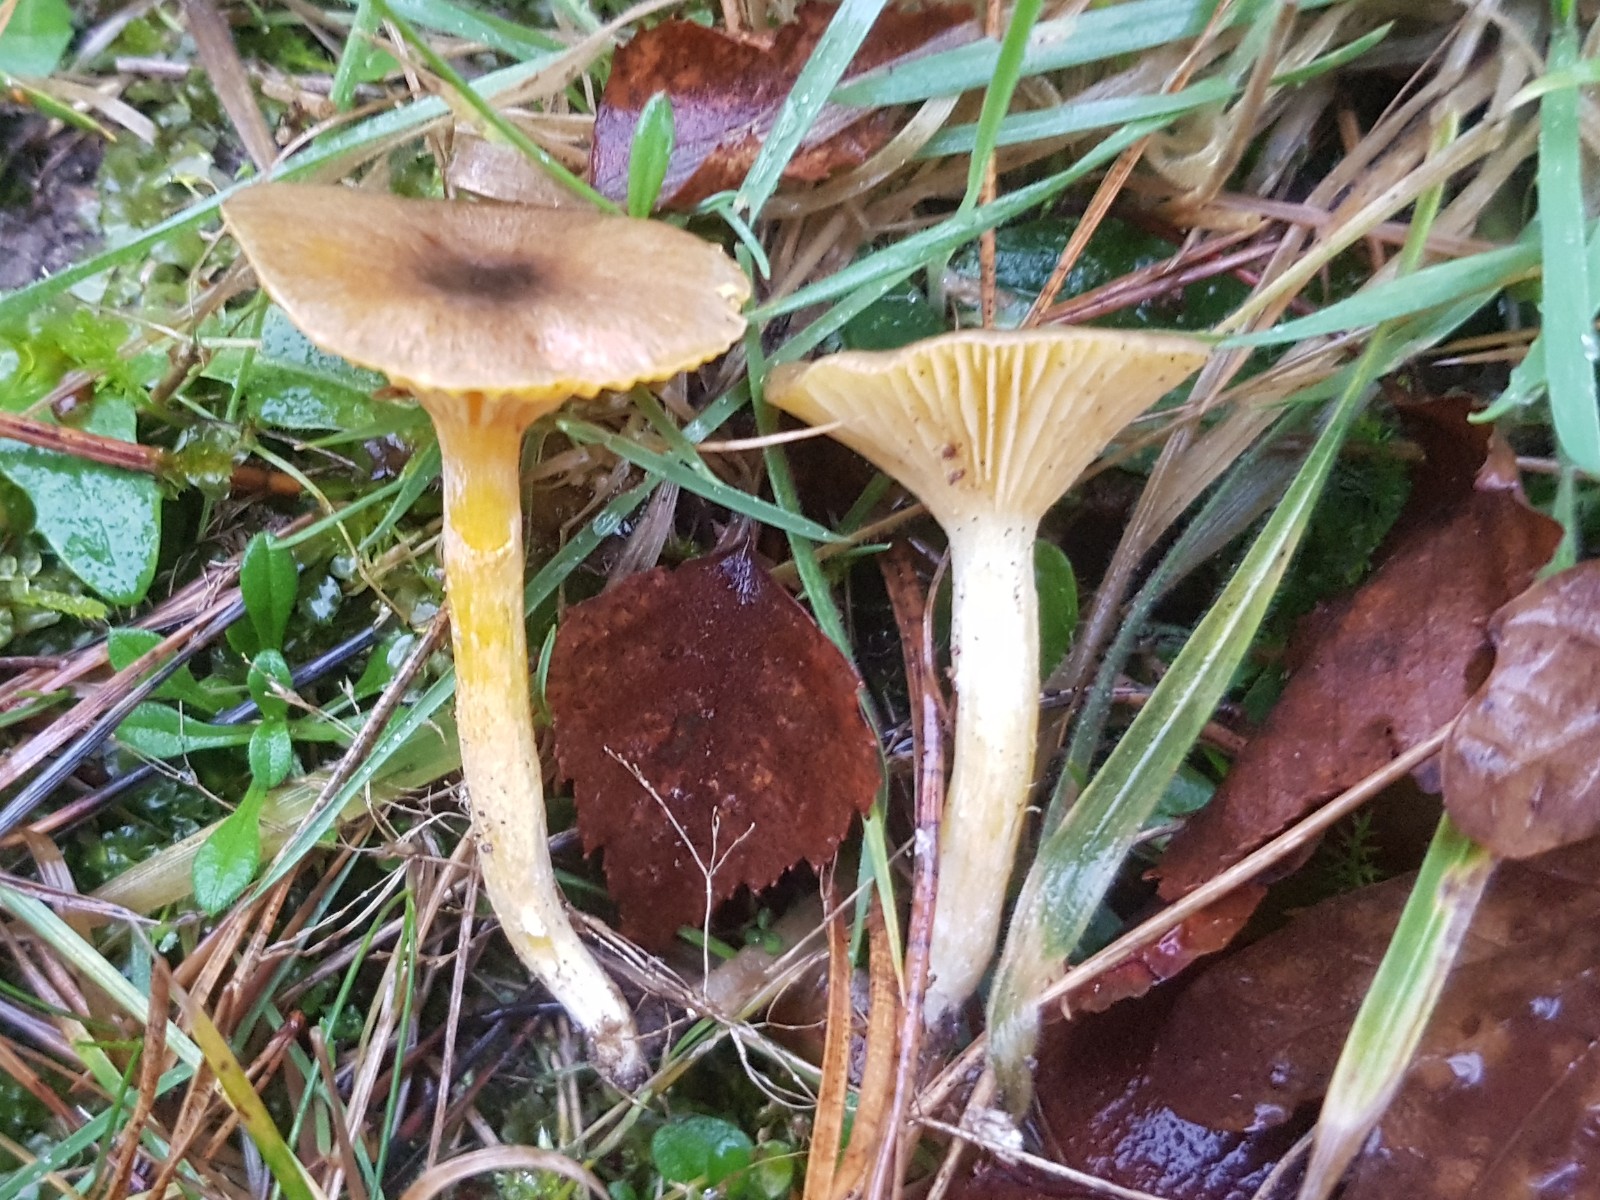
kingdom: Fungi
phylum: Basidiomycota
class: Agaricomycetes
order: Agaricales
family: Hygrophoraceae
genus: Hygrophorus
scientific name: Hygrophorus hypothejus
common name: frost-sneglehat
